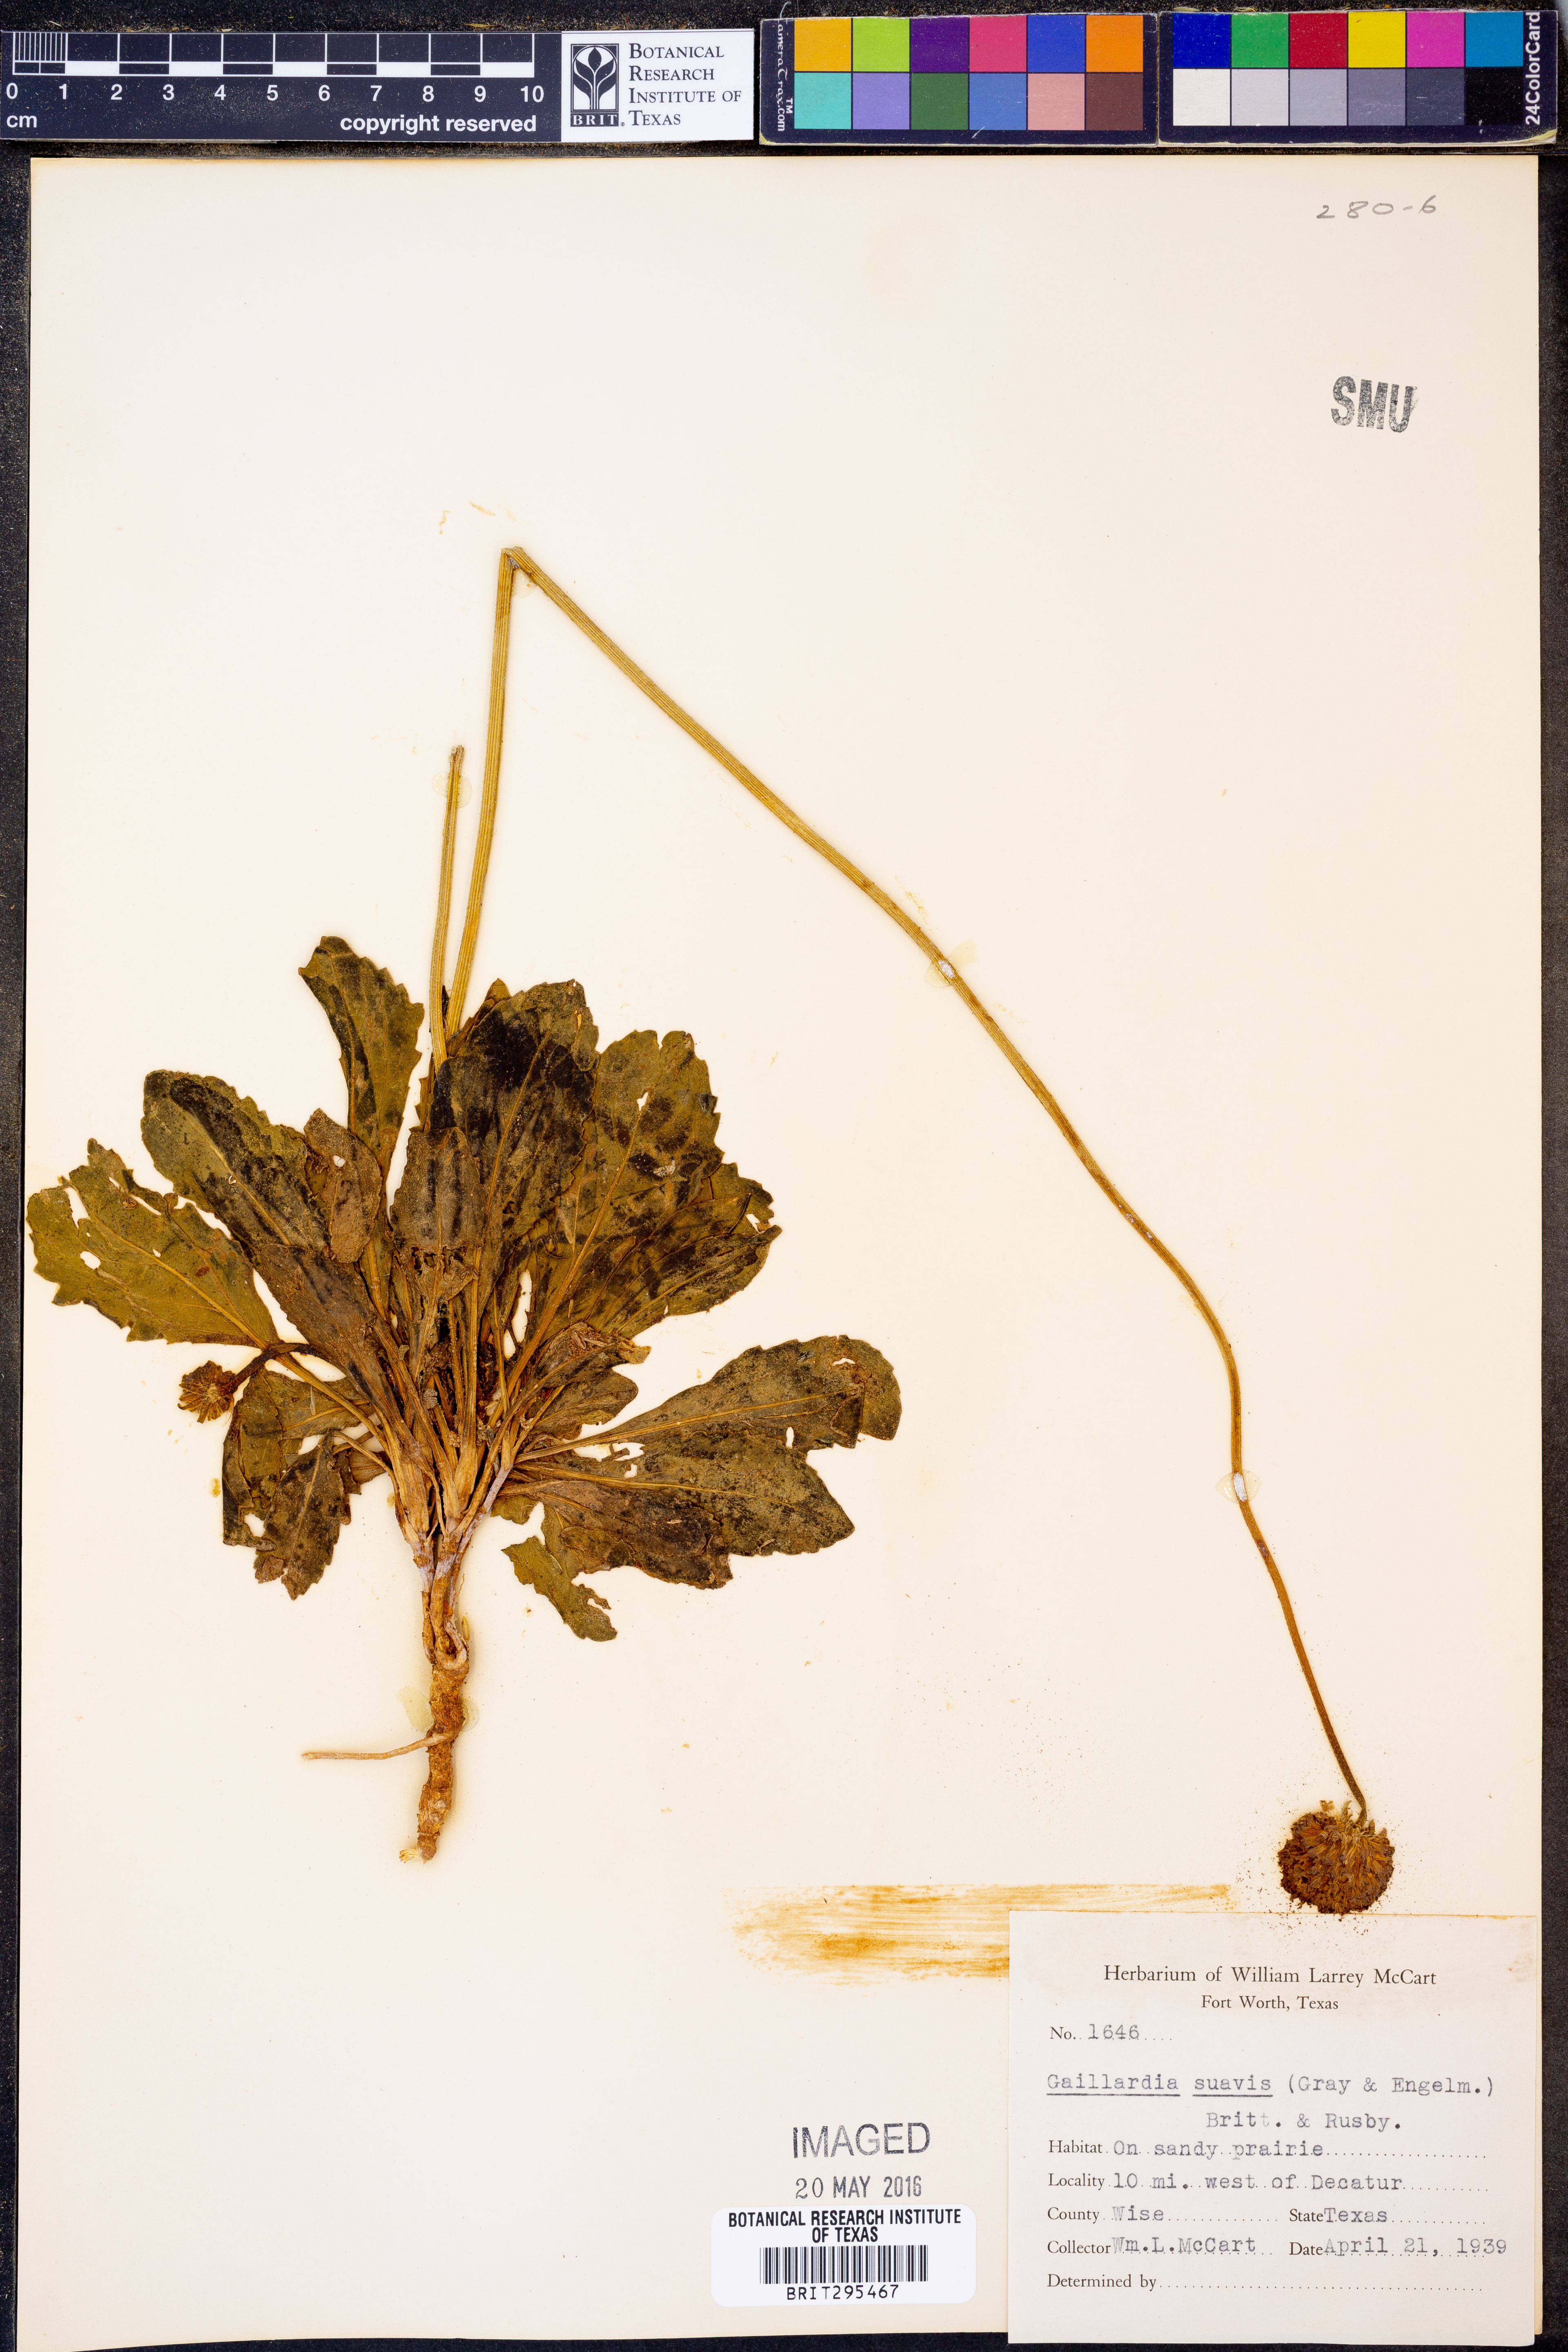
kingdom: Plantae
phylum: Tracheophyta
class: Magnoliopsida
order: Asterales
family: Asteraceae
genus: Gaillardia
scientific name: Gaillardia suavis
